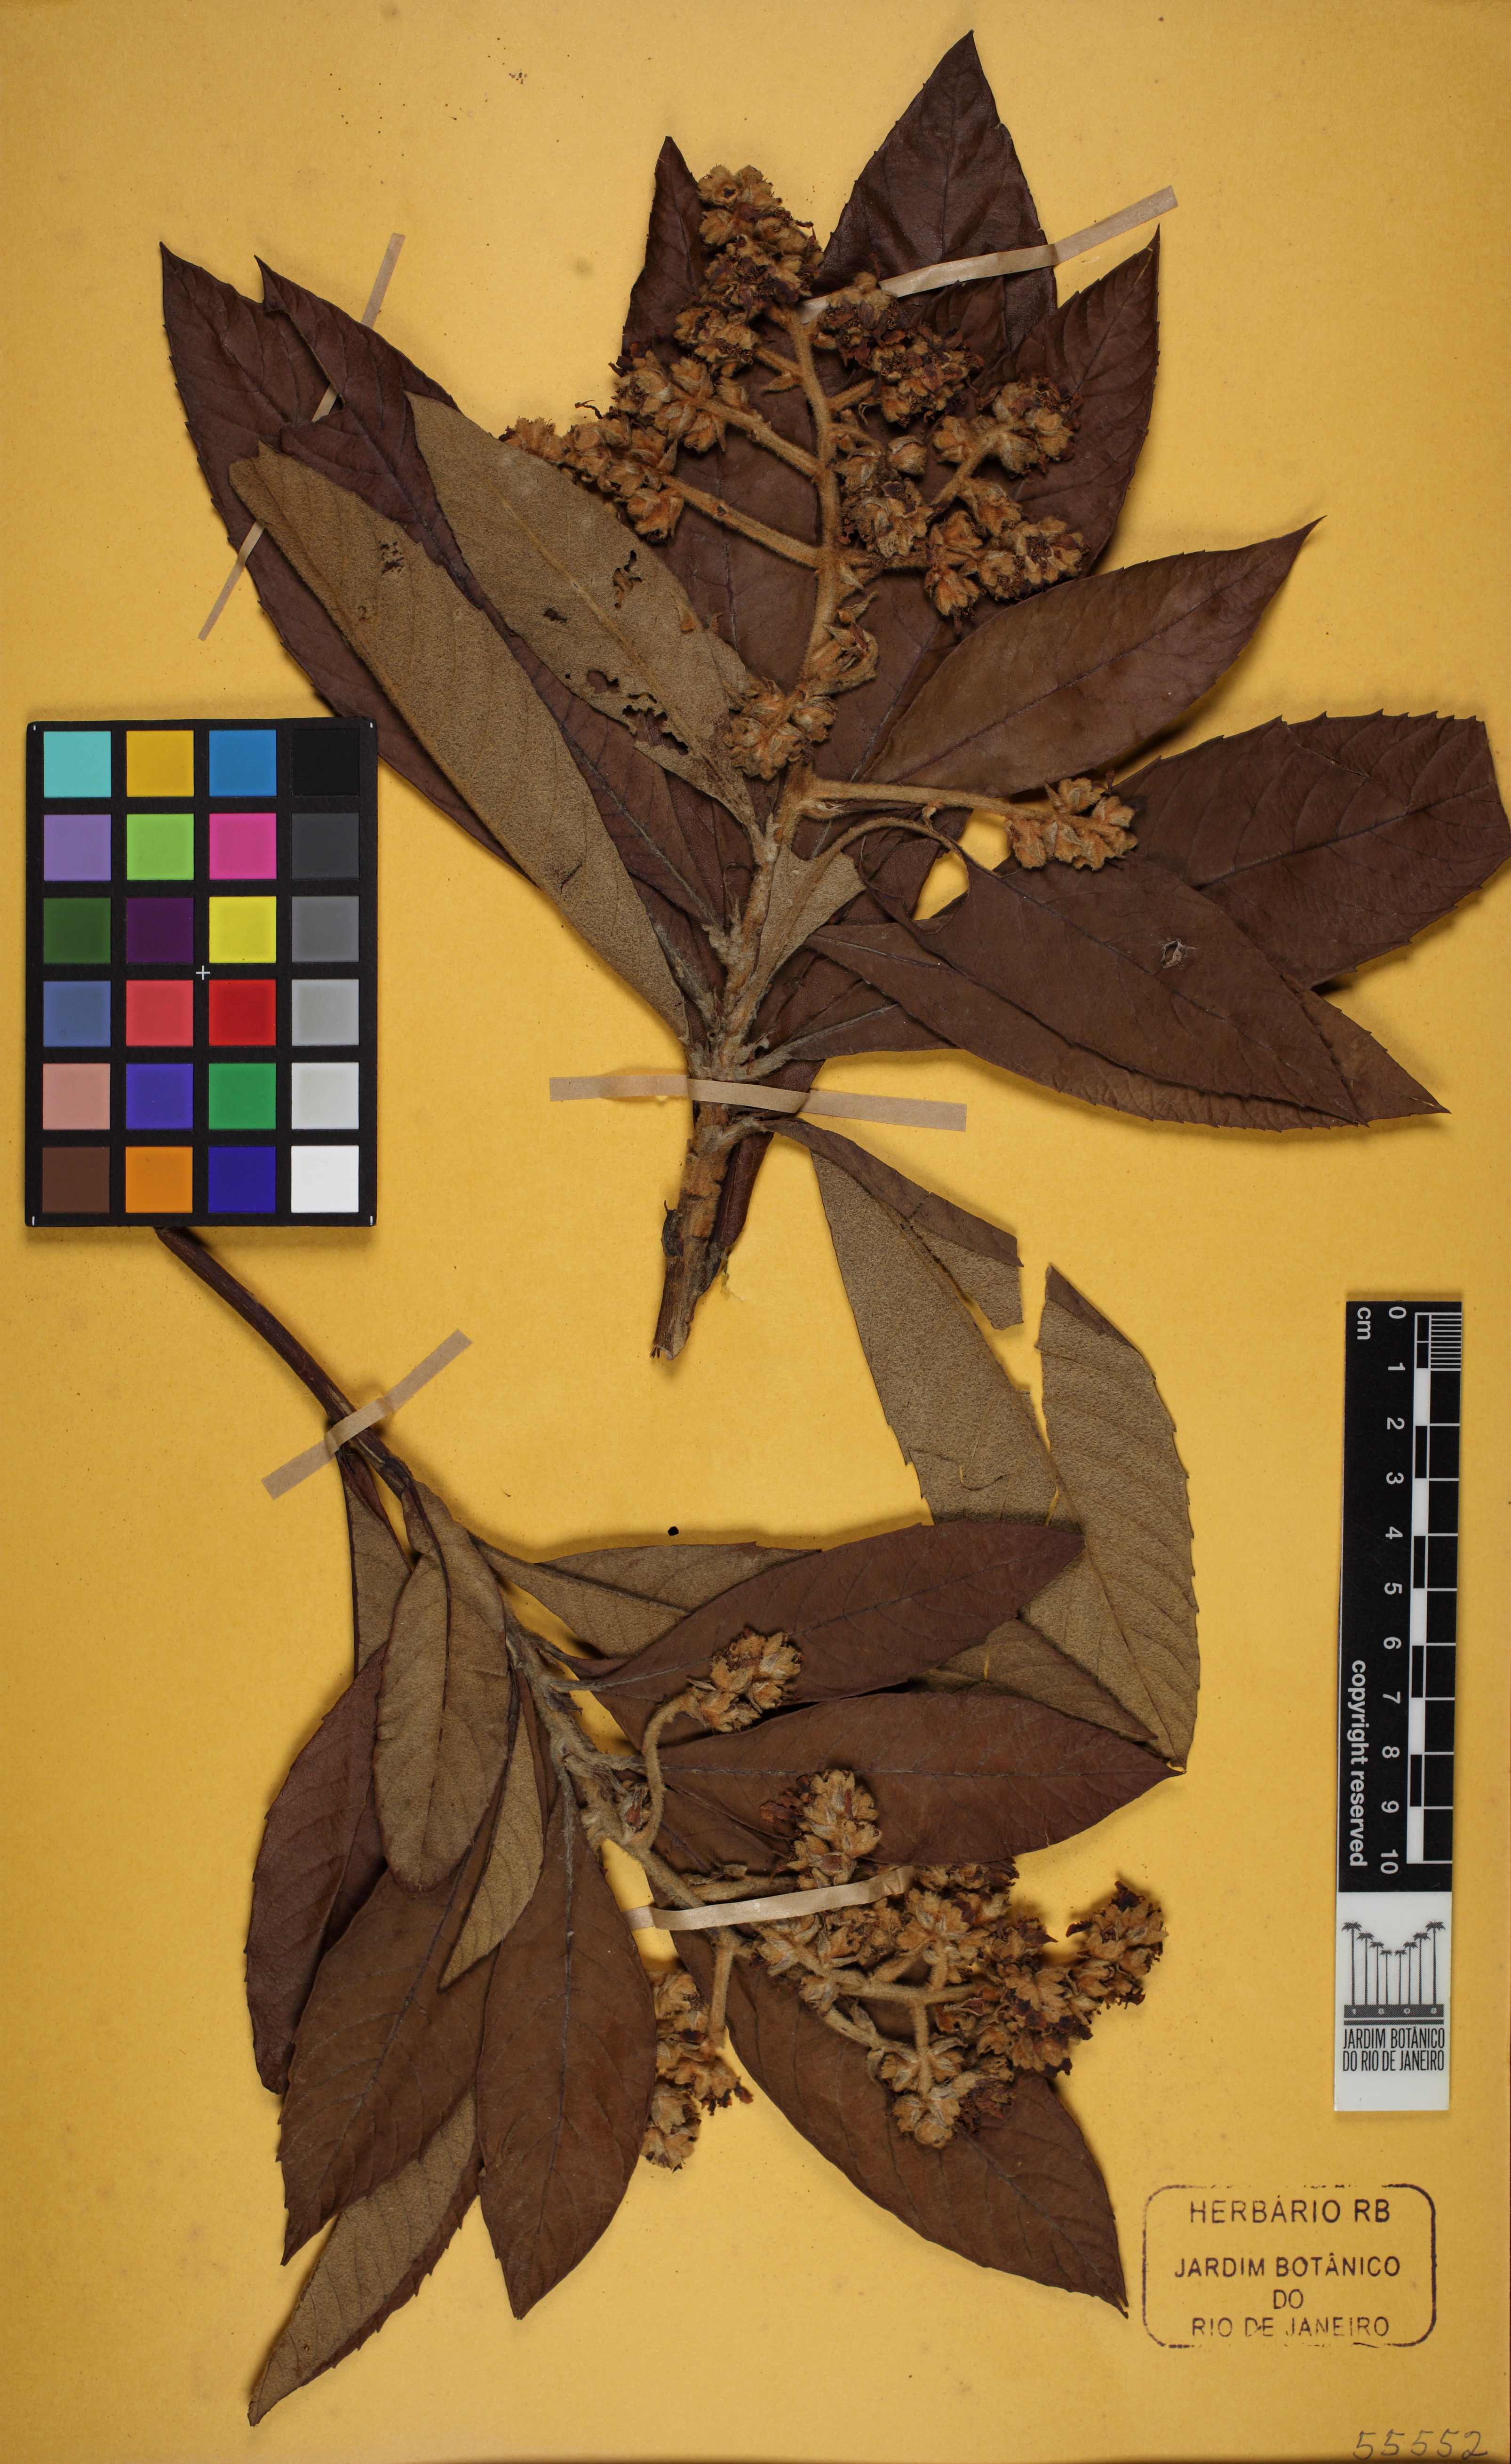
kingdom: Plantae
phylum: Tracheophyta
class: Magnoliopsida
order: Rosales
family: Rosaceae
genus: Rhaphiolepis
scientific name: Rhaphiolepis bibas
